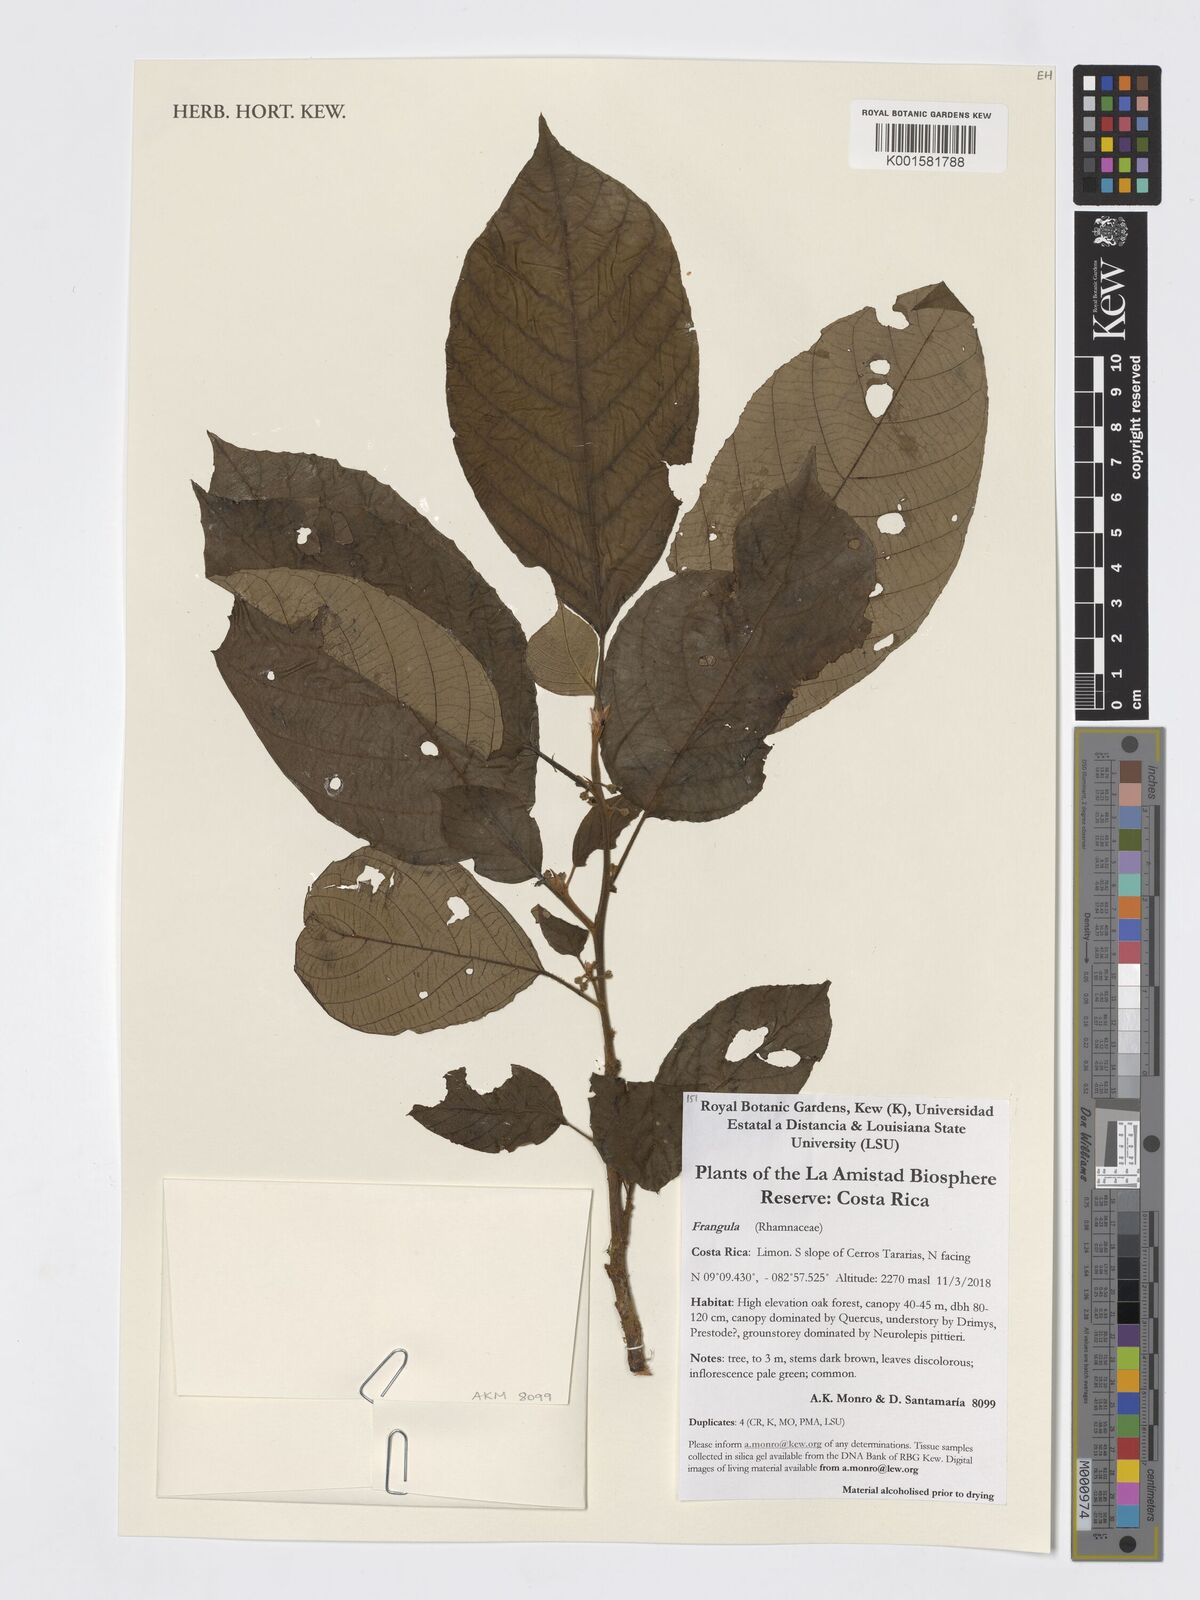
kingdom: Plantae
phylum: Tracheophyta
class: Magnoliopsida
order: Rosales
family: Rhamnaceae
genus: Frangula
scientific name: Frangula
